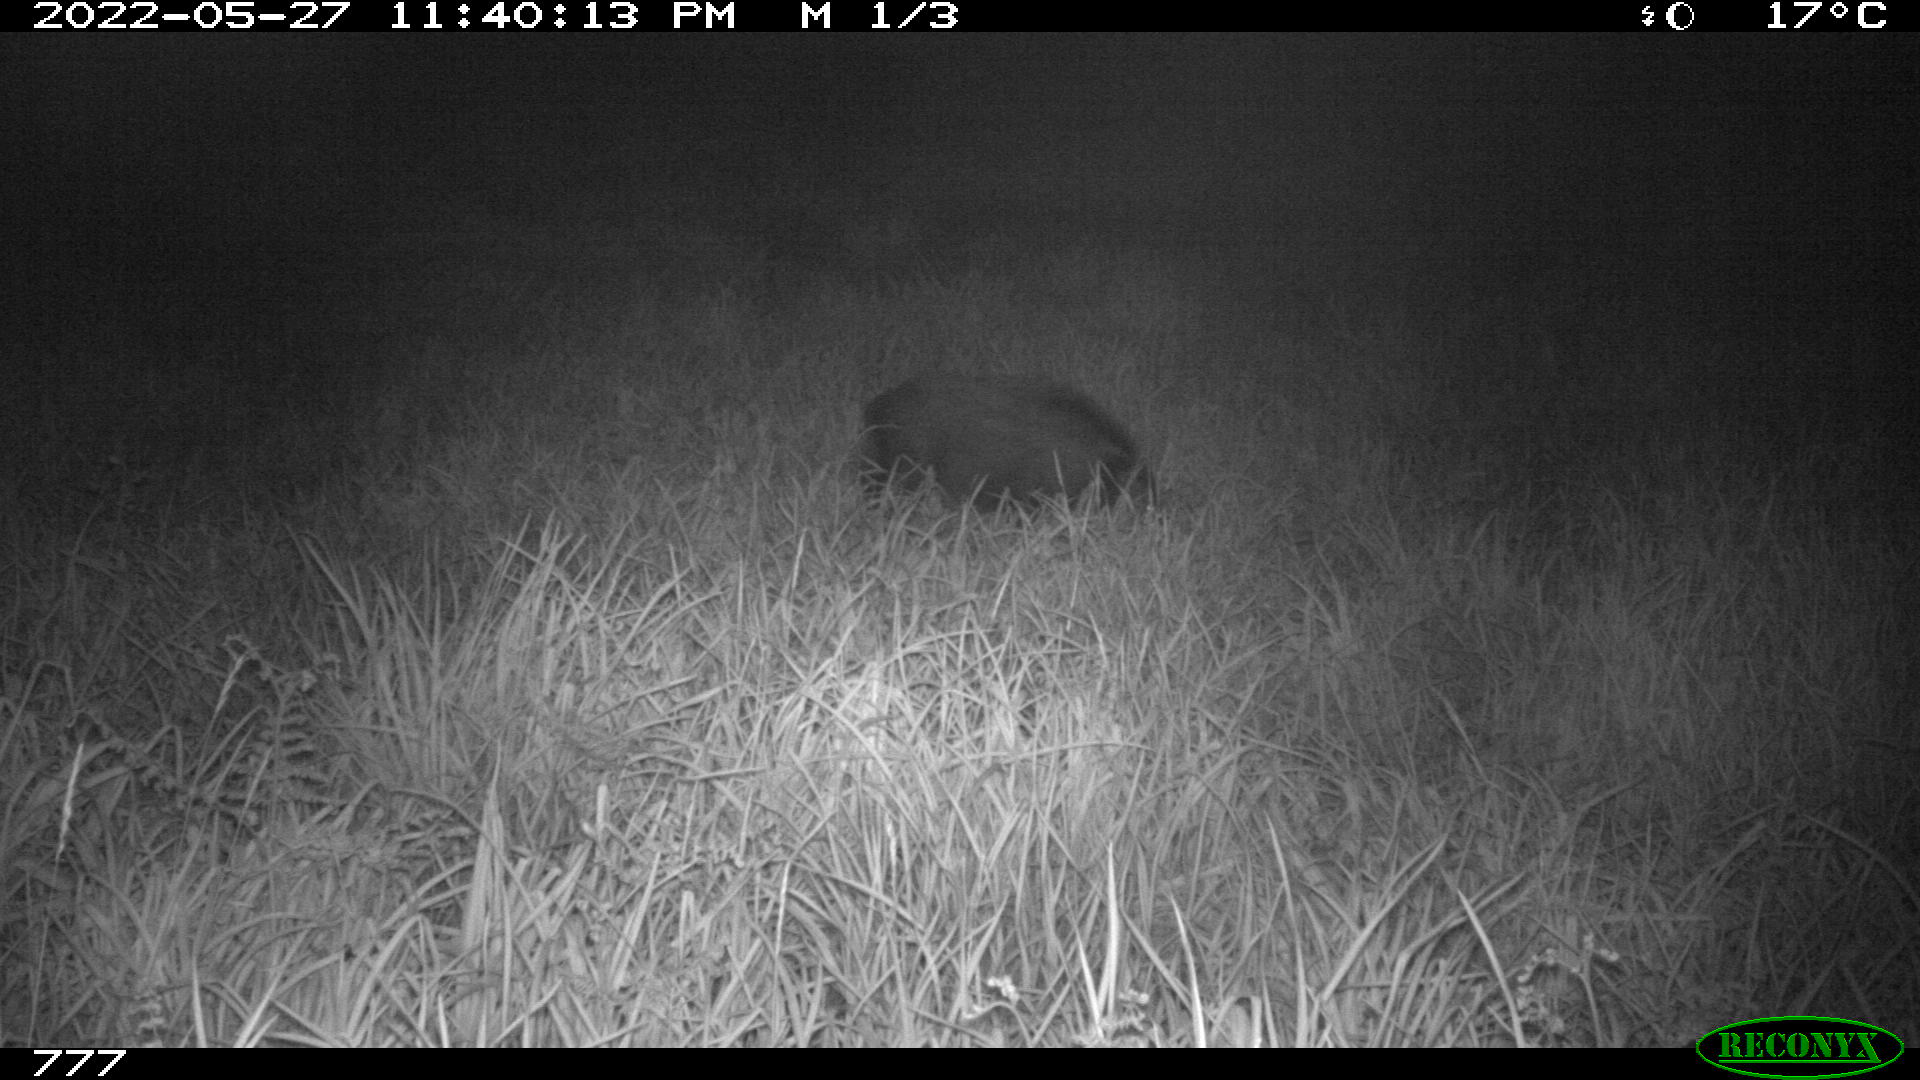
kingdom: Animalia
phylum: Chordata
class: Mammalia
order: Artiodactyla
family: Suidae
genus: Sus
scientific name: Sus scrofa
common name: Wild boar
